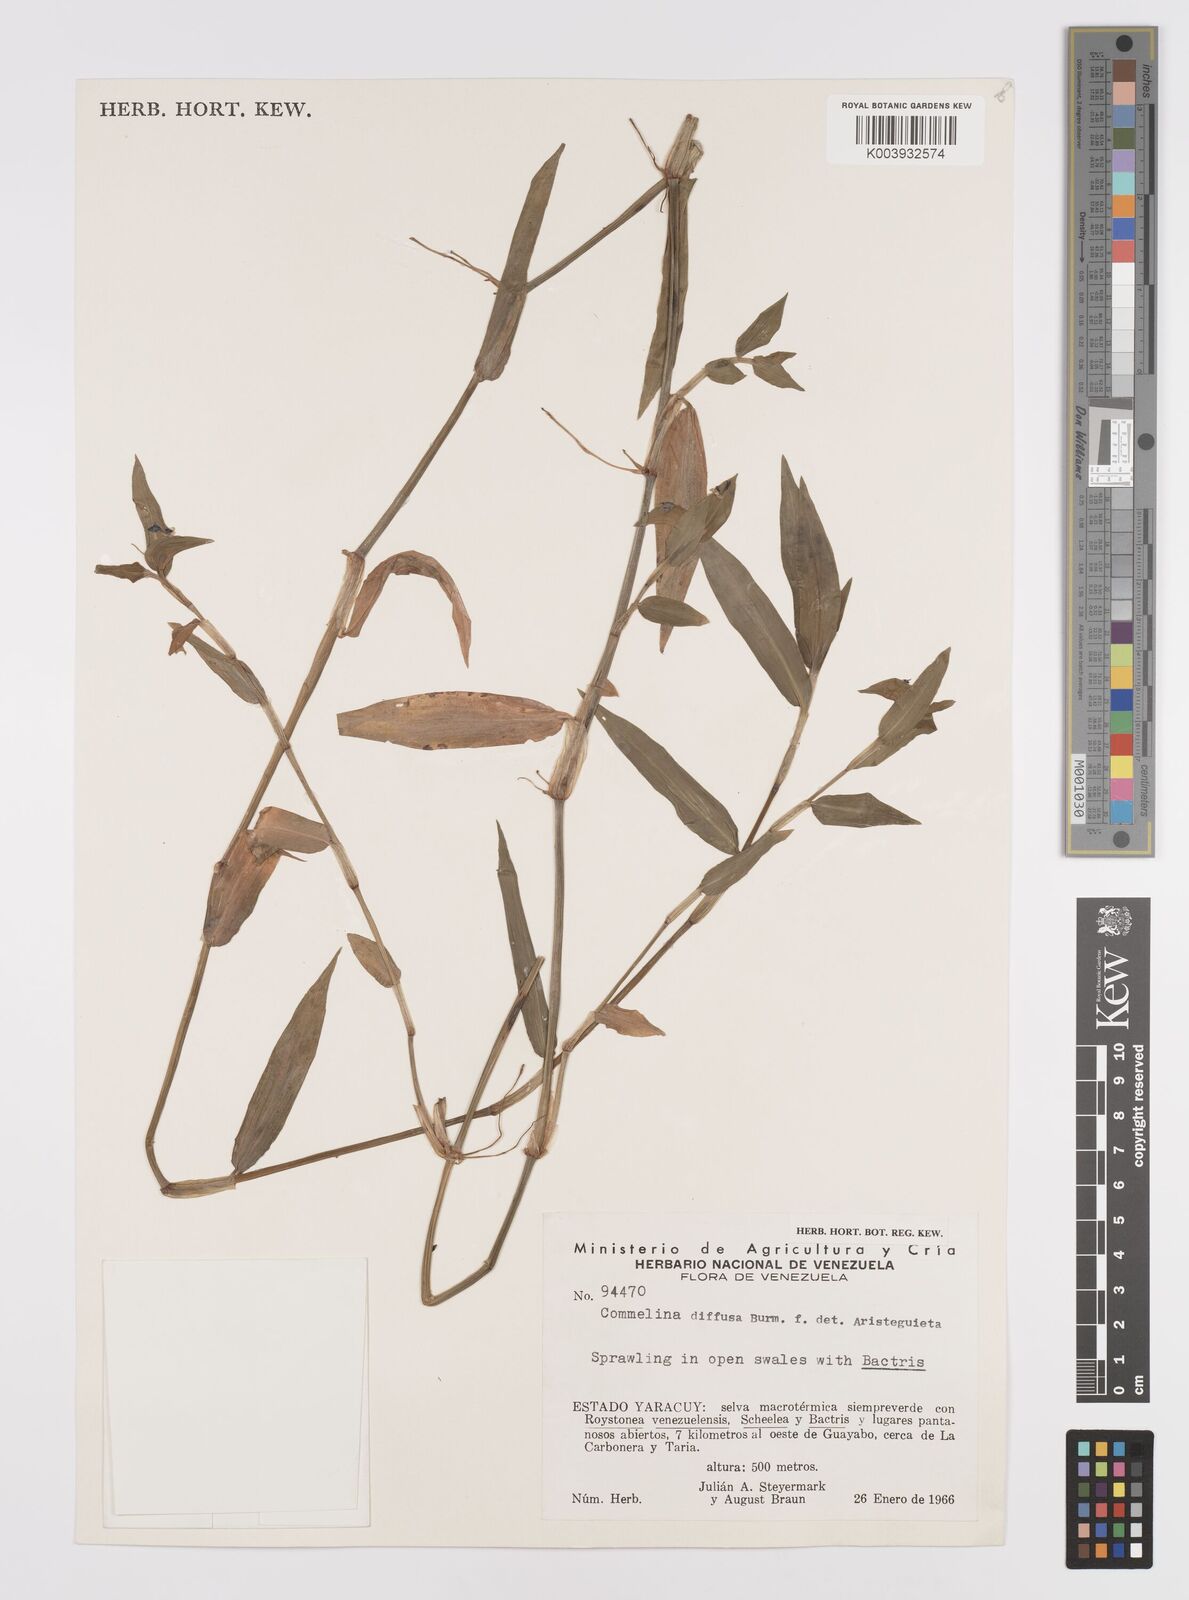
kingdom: Plantae
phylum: Tracheophyta
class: Liliopsida
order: Commelinales
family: Commelinaceae
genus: Commelina
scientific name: Commelina diffusa
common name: Climbing dayflower
